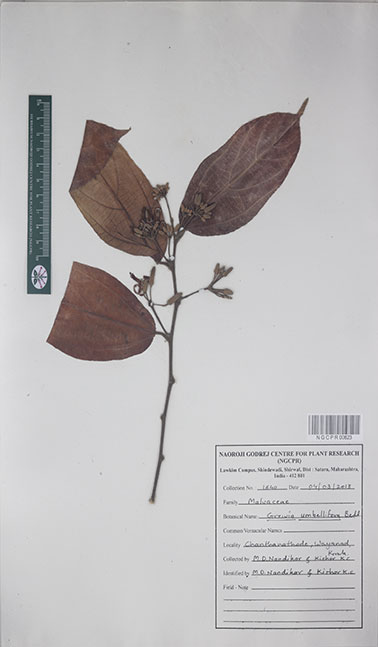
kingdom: Plantae
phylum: Tracheophyta
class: Magnoliopsida
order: Malvales
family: Malvaceae
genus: Grewia
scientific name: Grewia umbellifera
